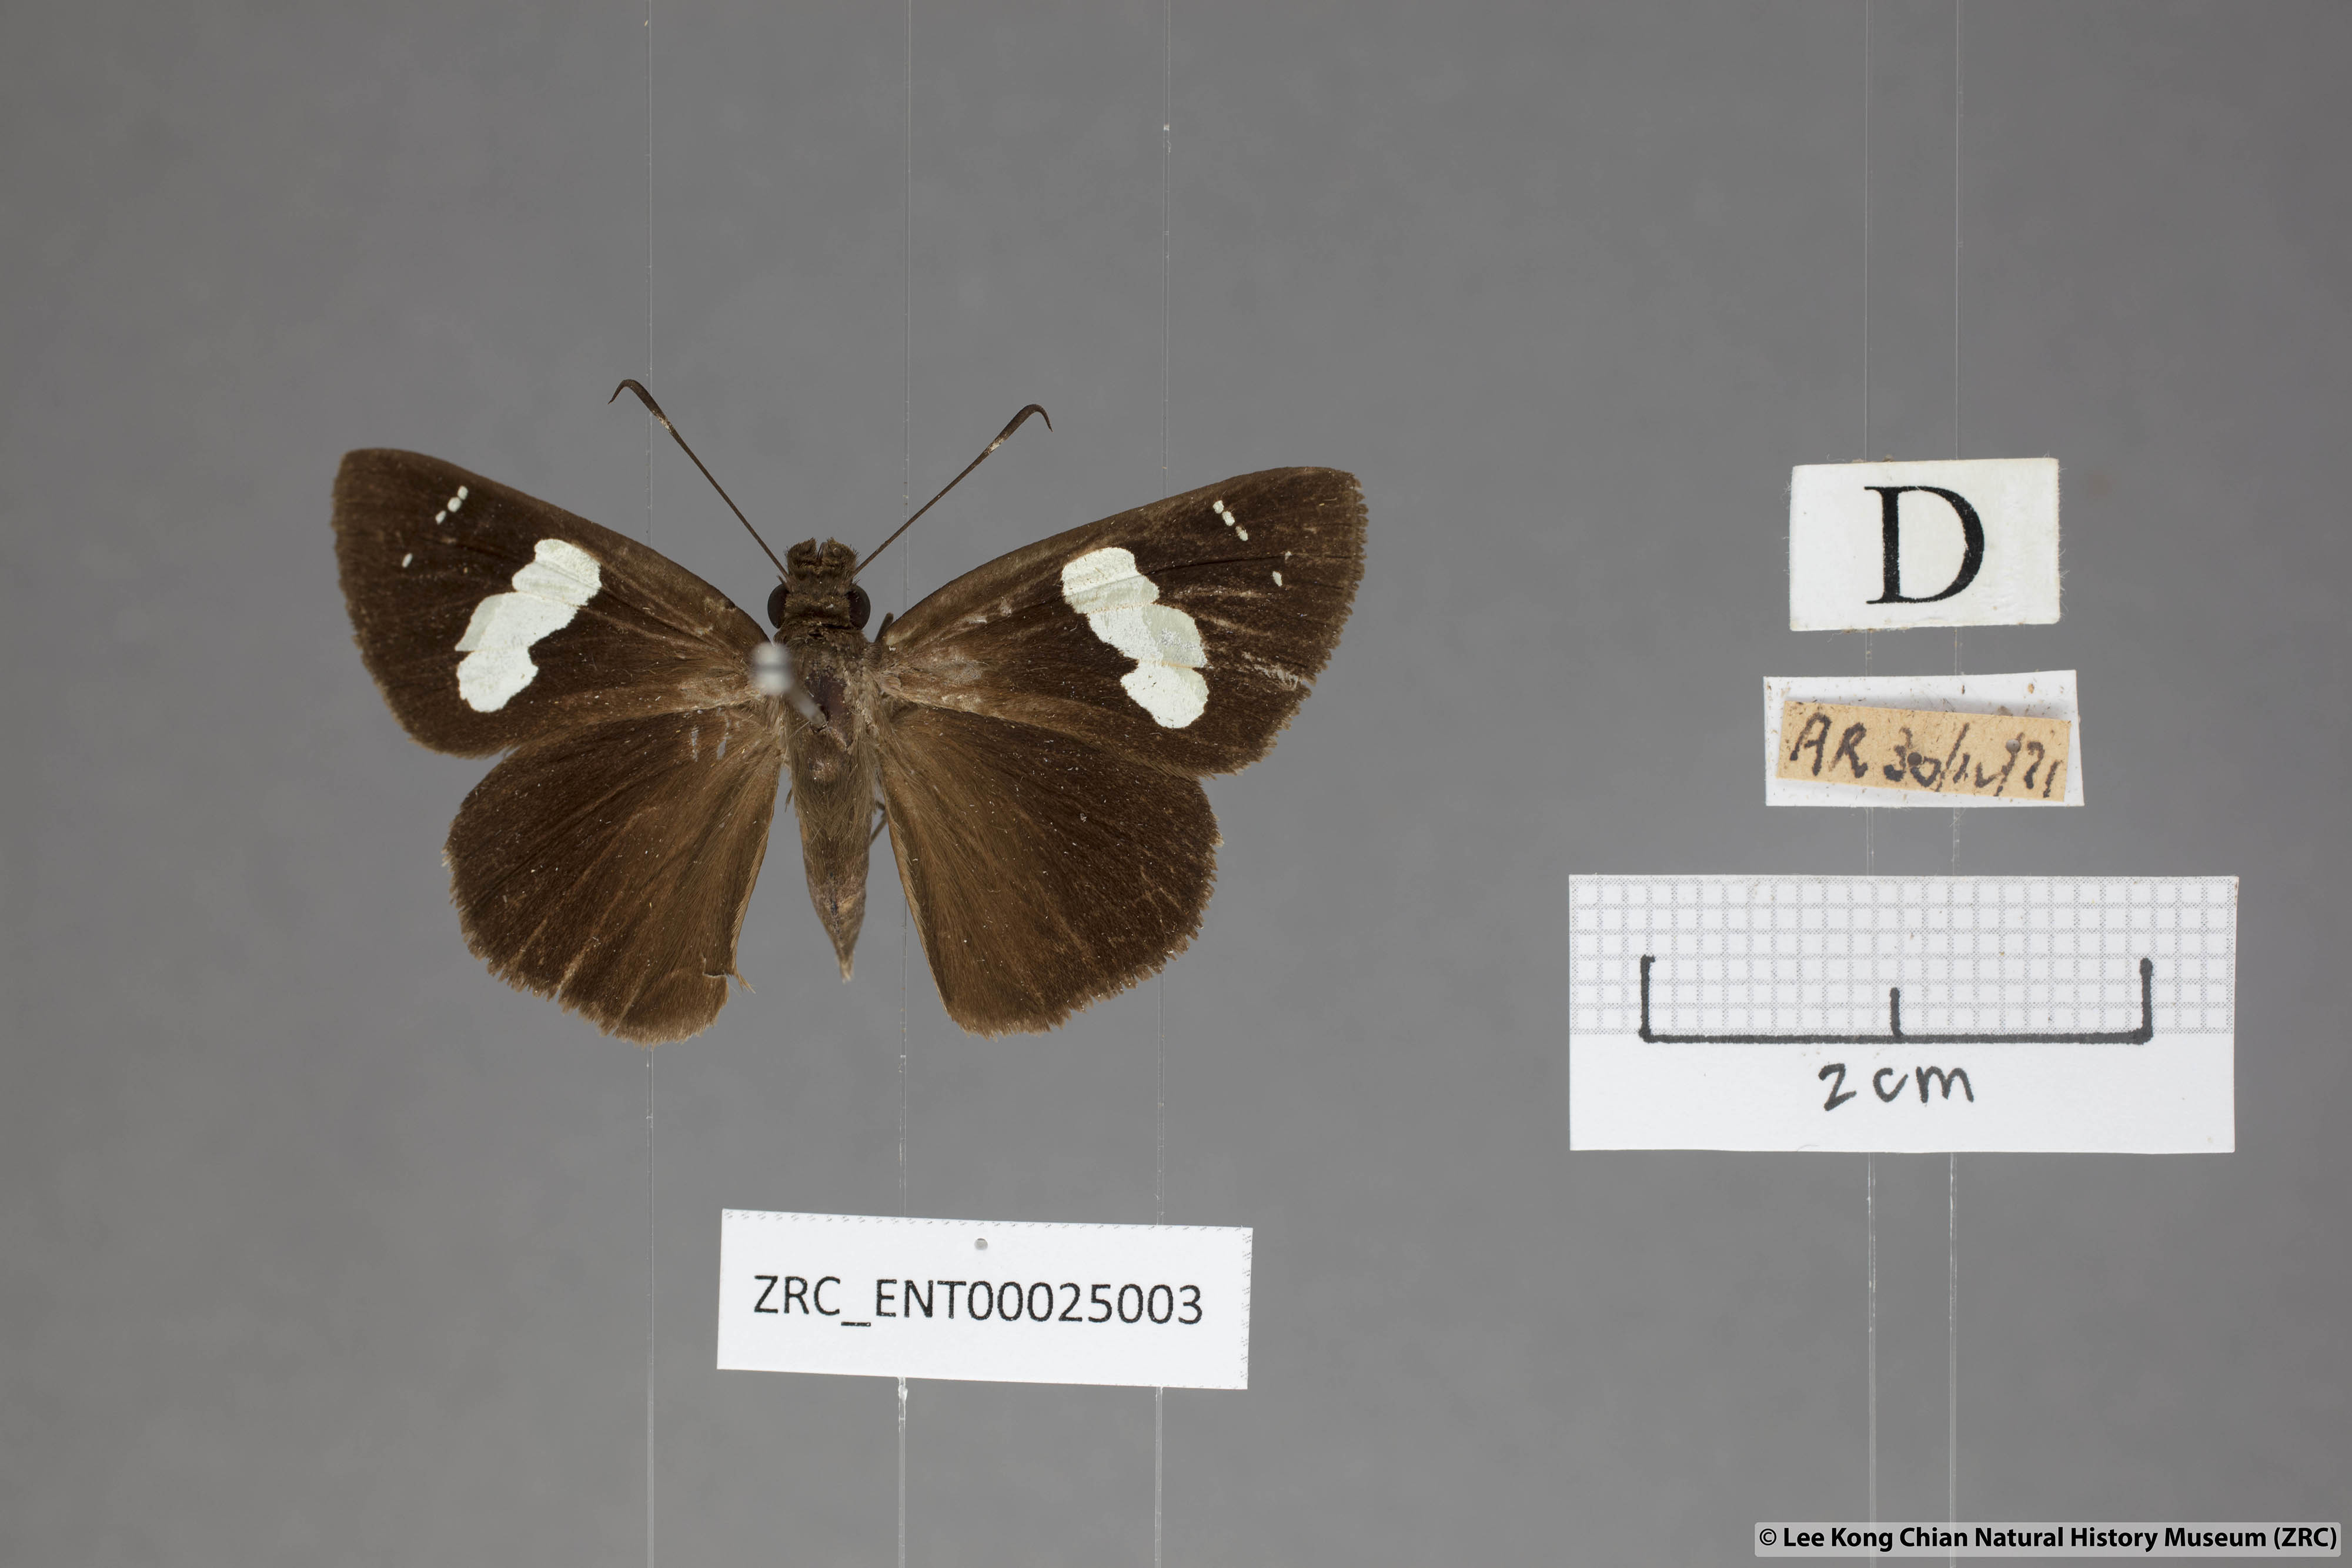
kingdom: Animalia
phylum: Arthropoda
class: Insecta
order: Lepidoptera
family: Hesperiidae
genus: Notocrypta
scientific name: Notocrypta curvifascia
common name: Restricted demon
